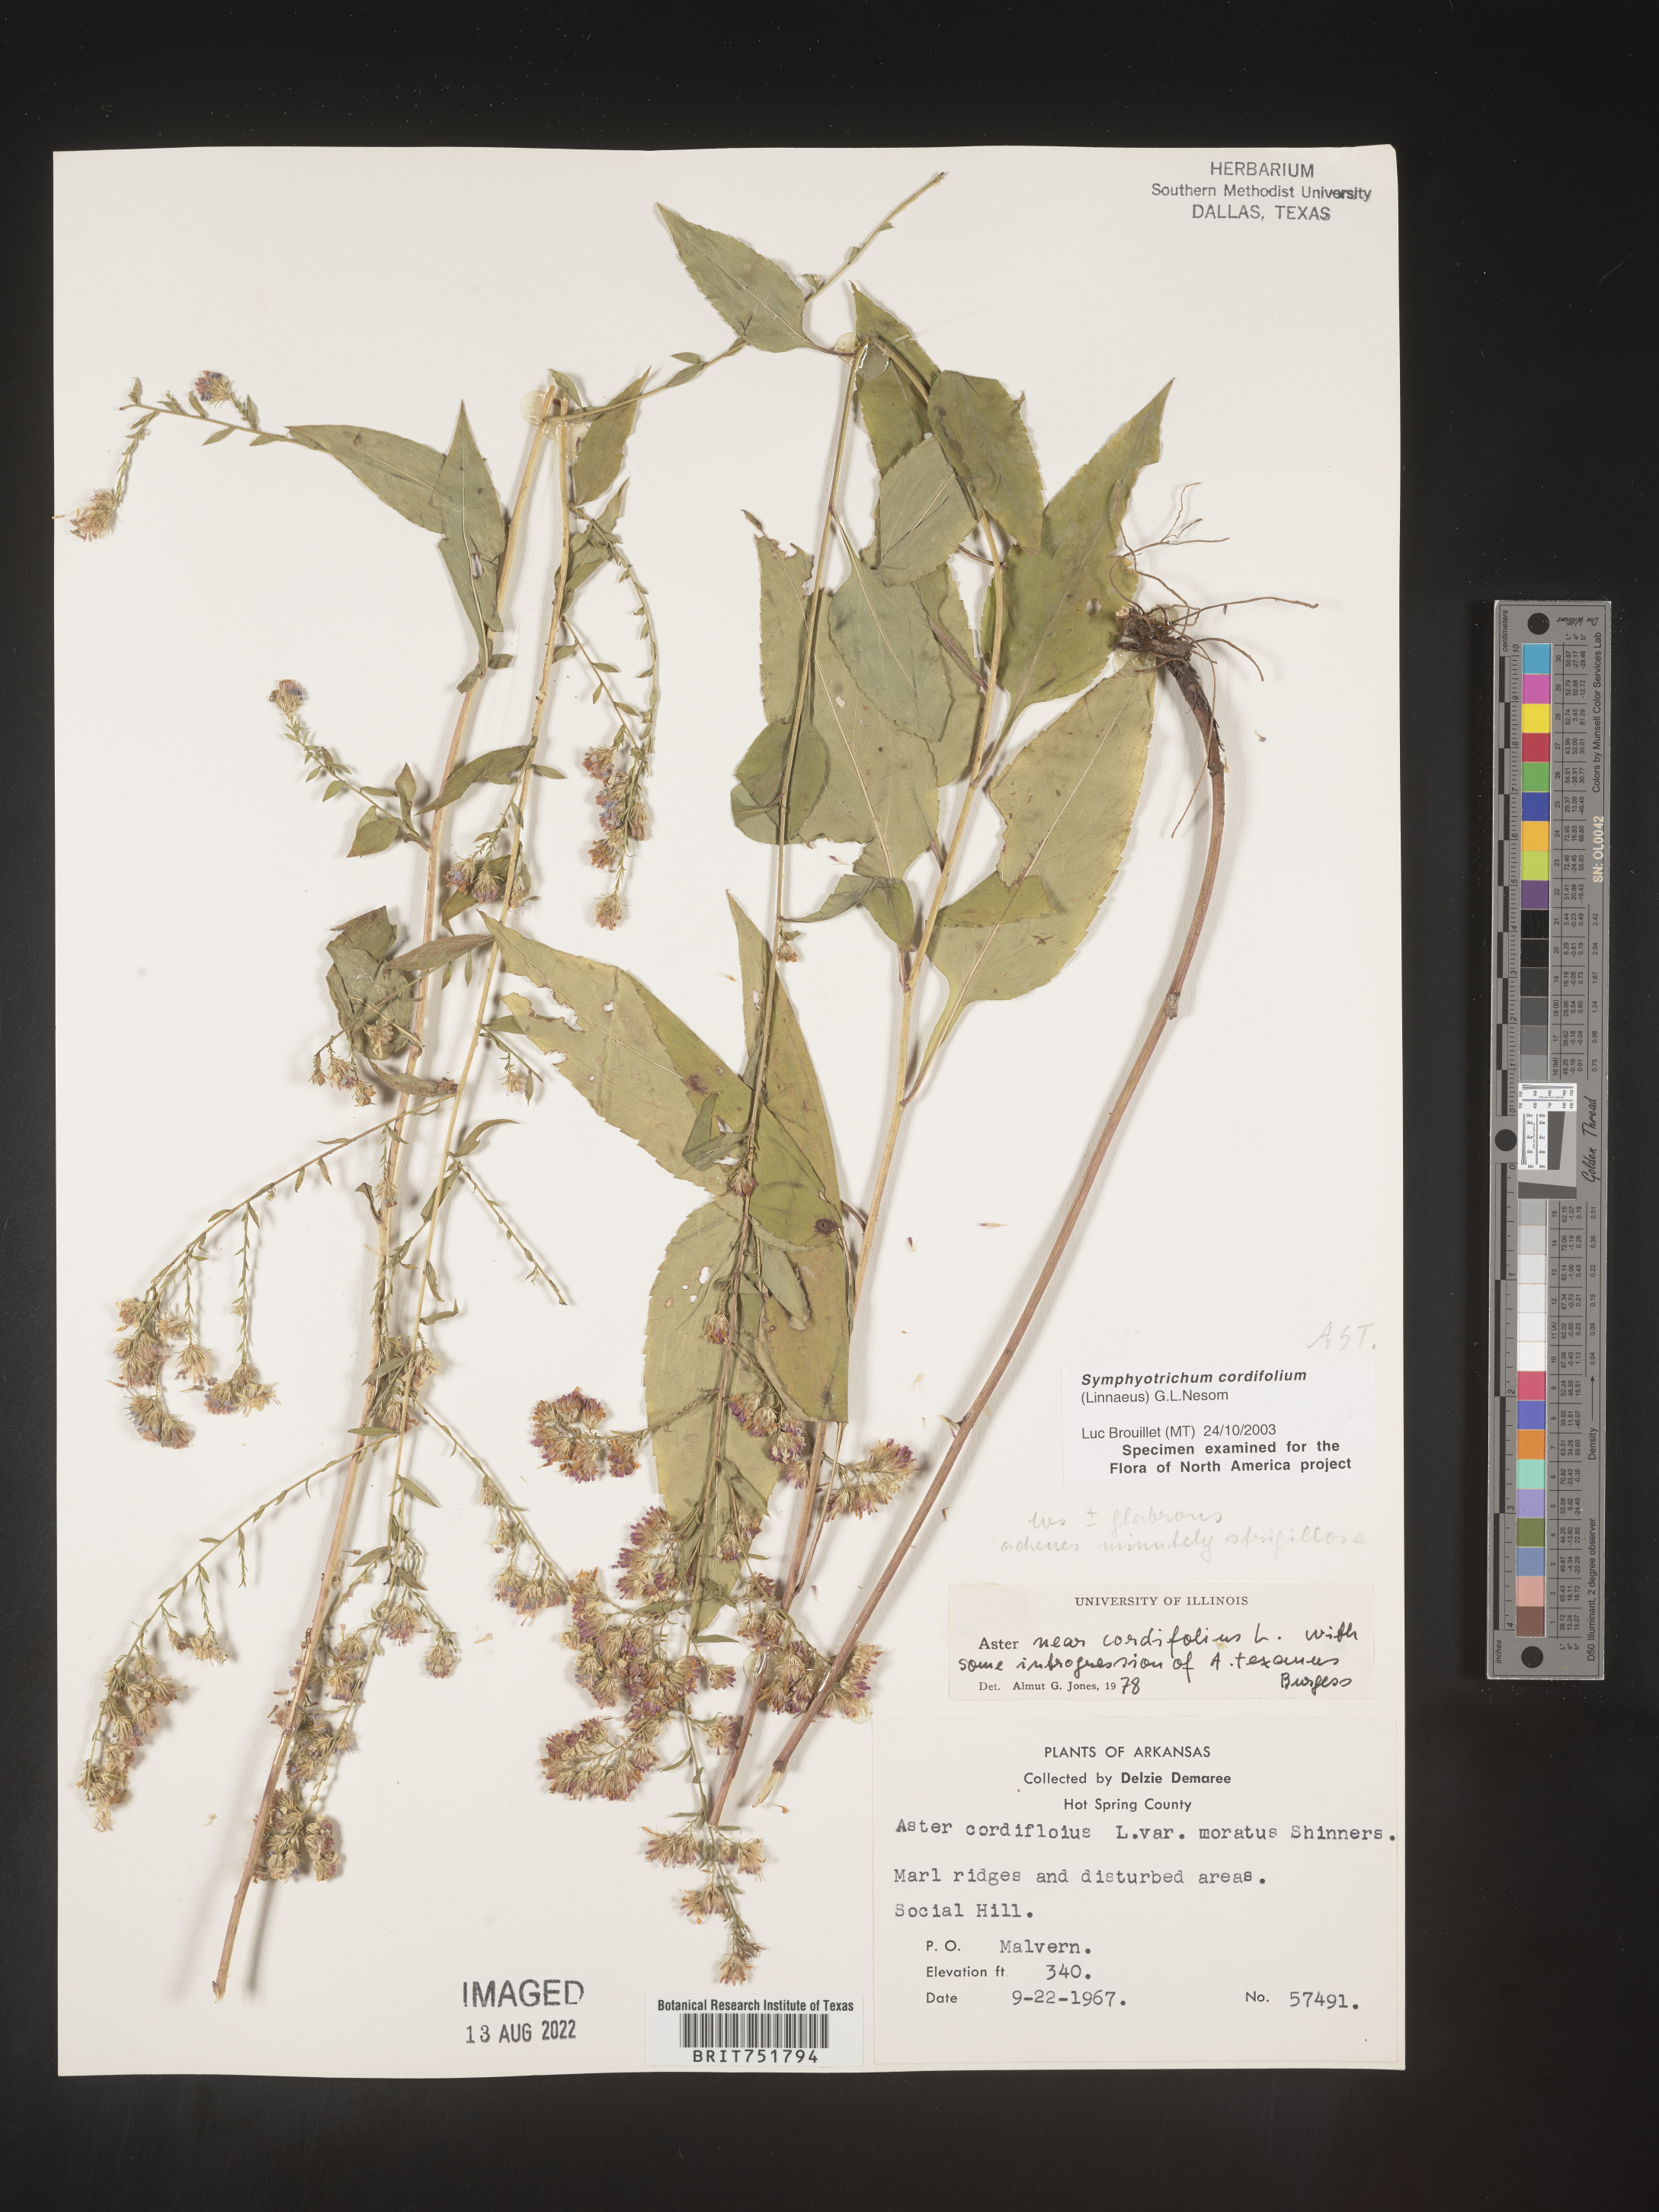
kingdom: Plantae
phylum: Tracheophyta
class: Magnoliopsida
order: Asterales
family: Asteraceae
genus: Symphyotrichum
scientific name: Symphyotrichum drummondii
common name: Drummond's aster
